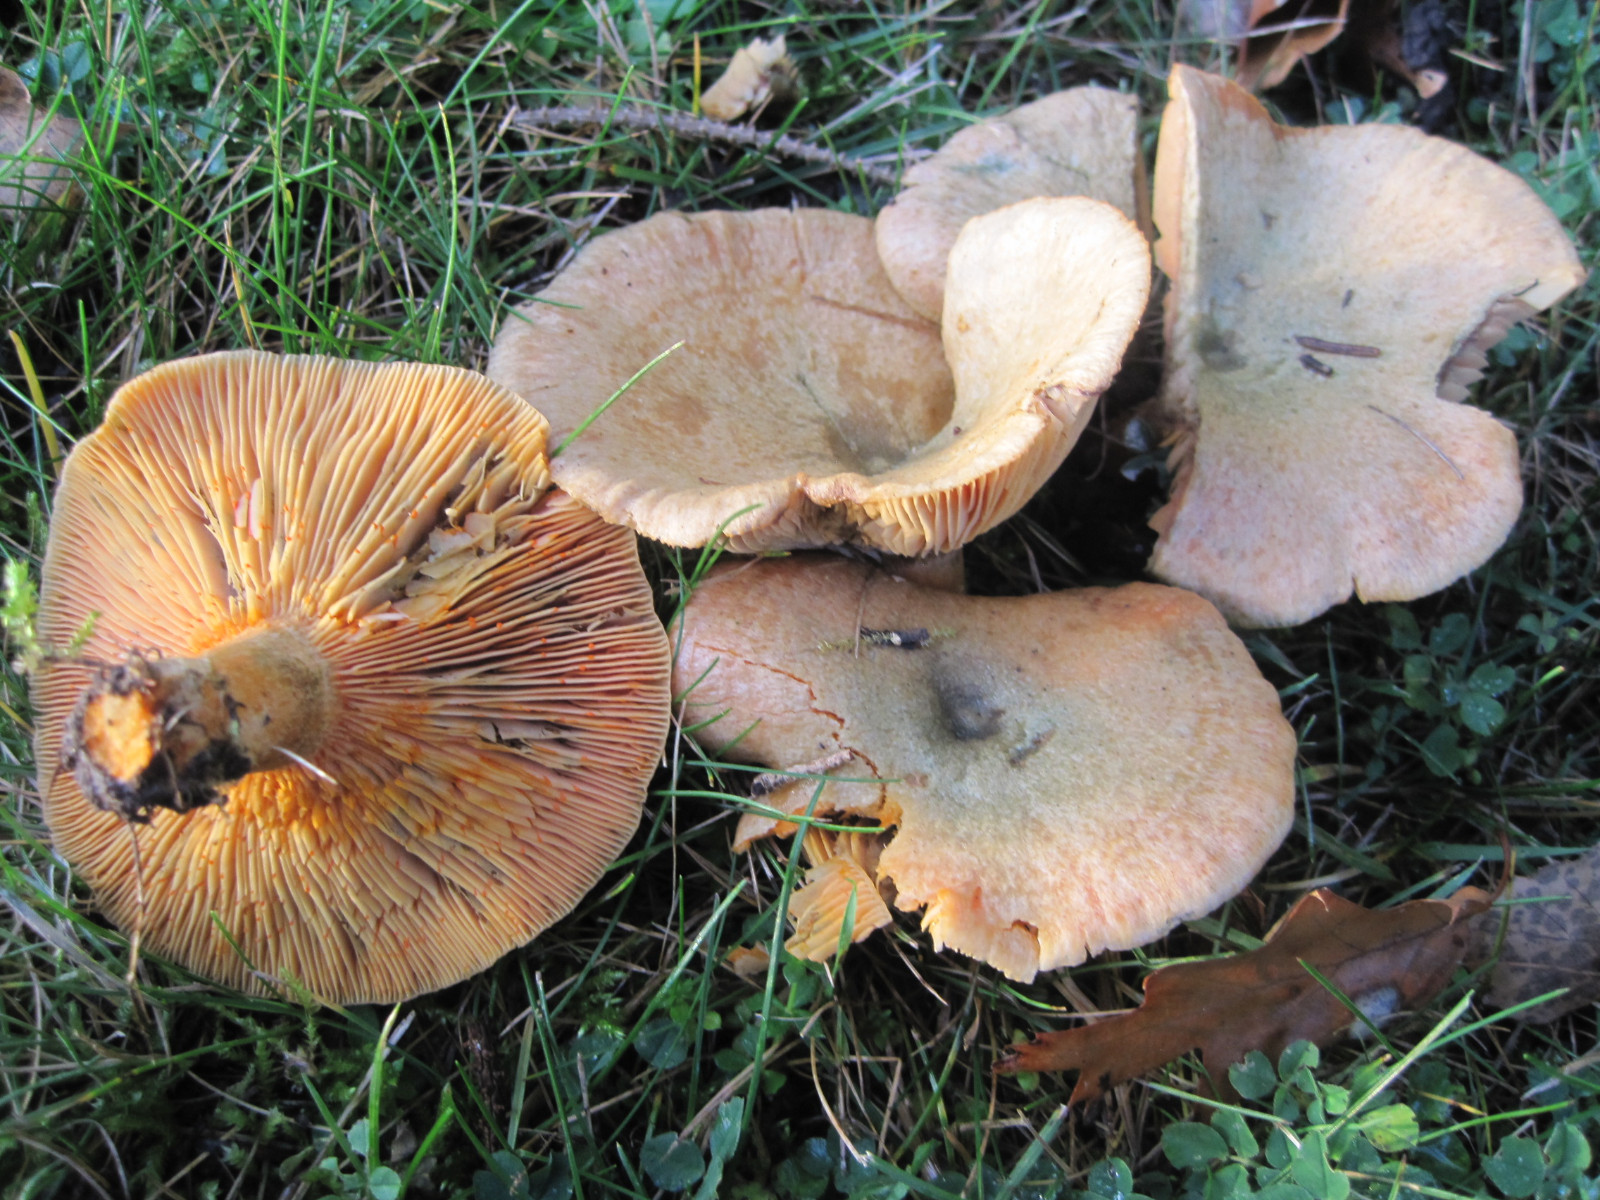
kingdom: Fungi
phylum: Basidiomycota
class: Agaricomycetes
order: Russulales
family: Russulaceae
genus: Lactarius
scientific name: Lactarius deterrimus
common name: gran-mælkehat
